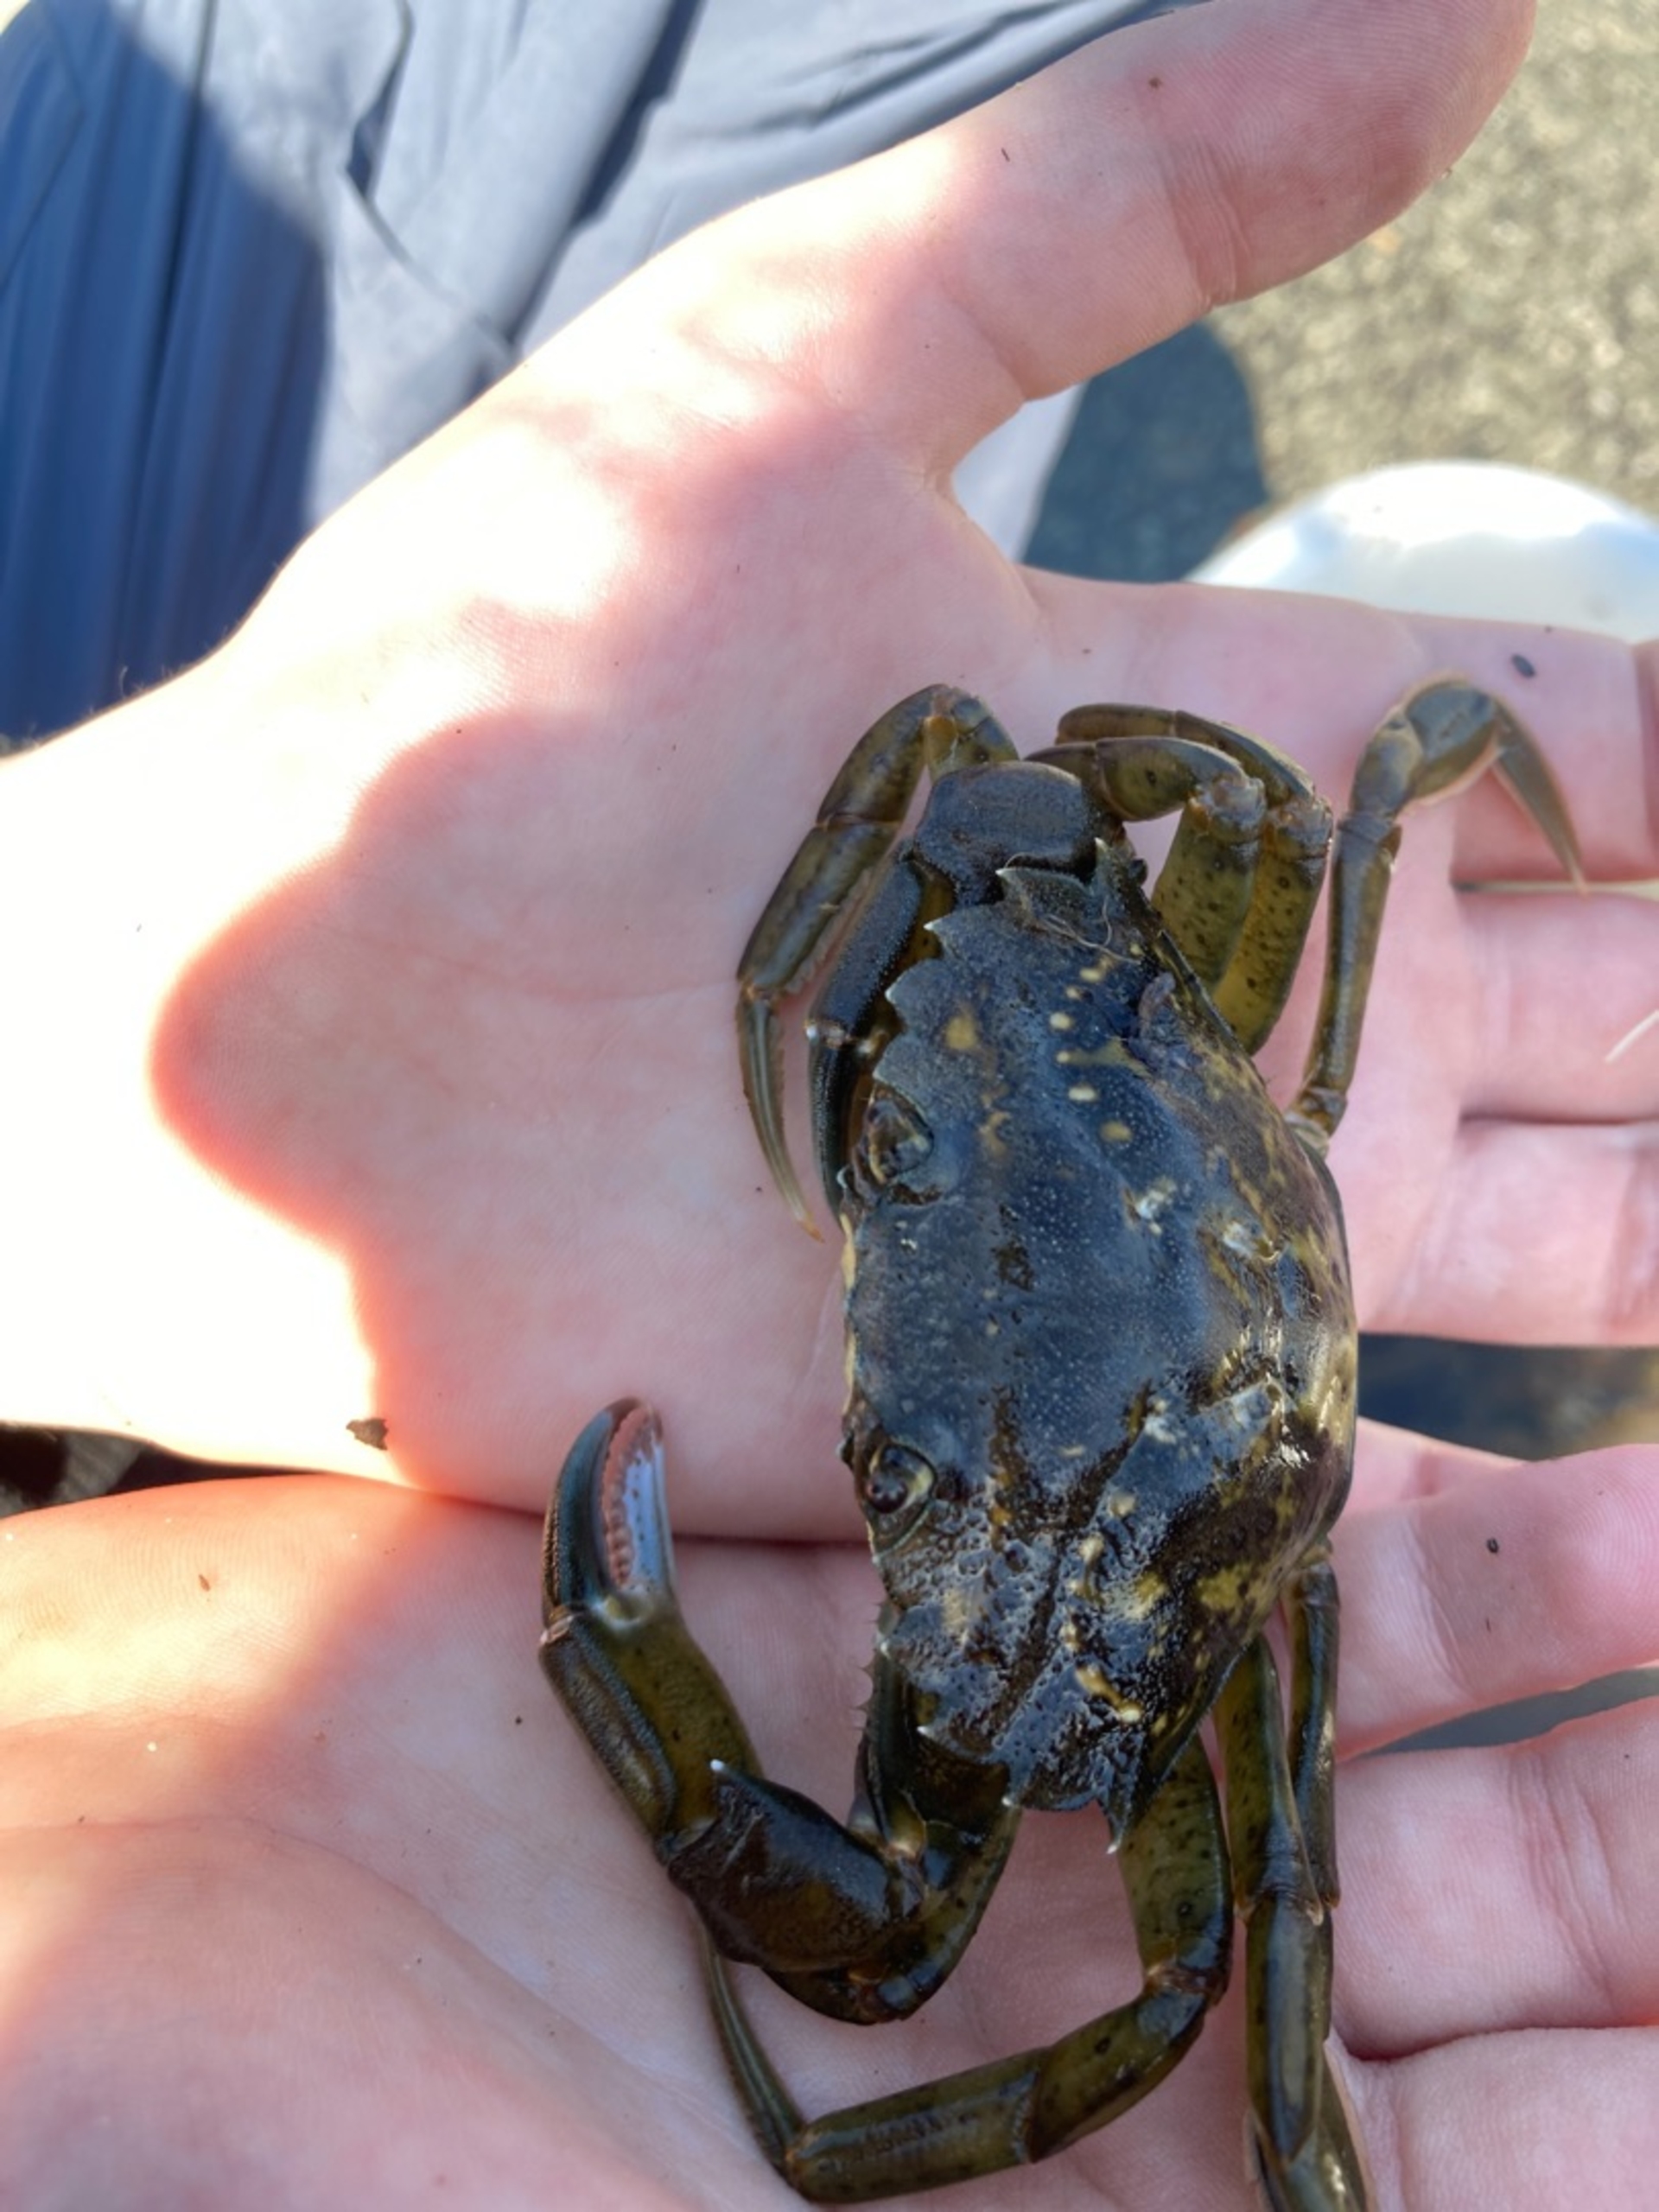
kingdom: Animalia
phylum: Arthropoda
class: Malacostraca
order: Decapoda
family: Carcinidae
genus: Carcinus
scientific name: Carcinus maenas
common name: Almindelig strandkrabbe
